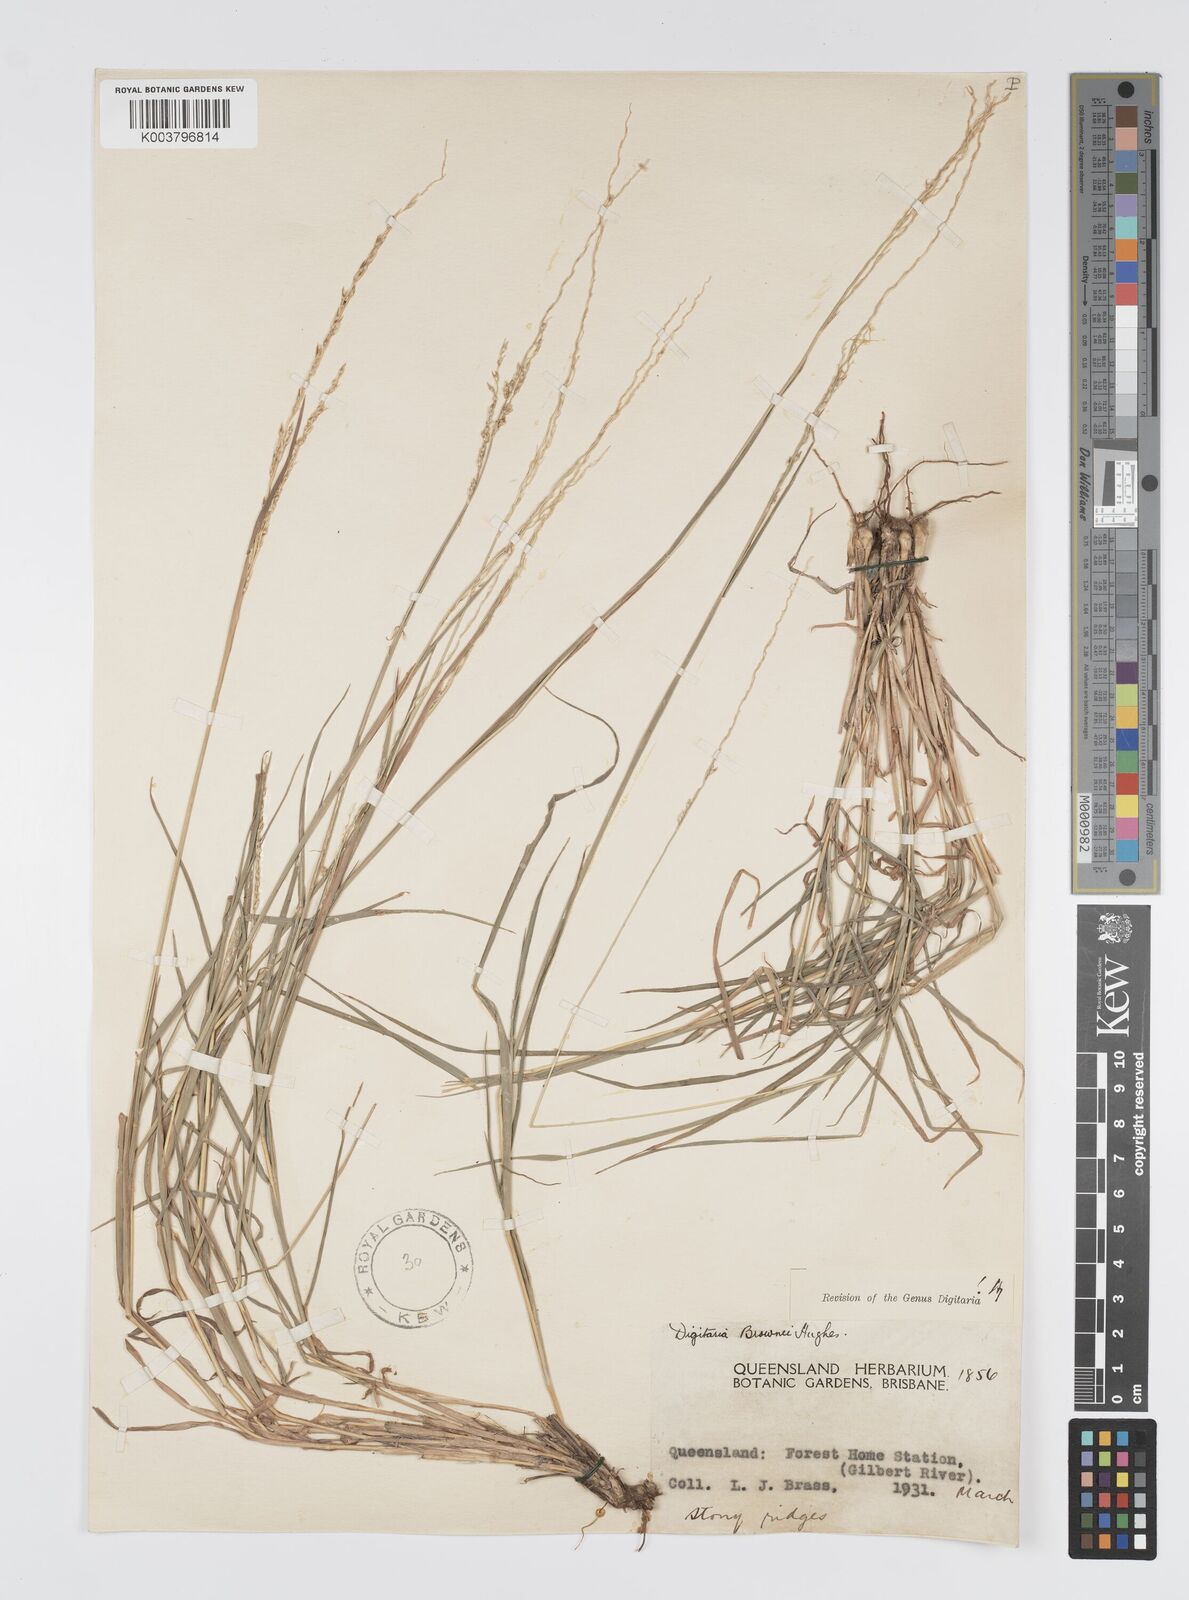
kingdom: Plantae
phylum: Tracheophyta
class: Liliopsida
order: Poales
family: Poaceae
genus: Digitaria
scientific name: Digitaria brownii
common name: Cotton grass
